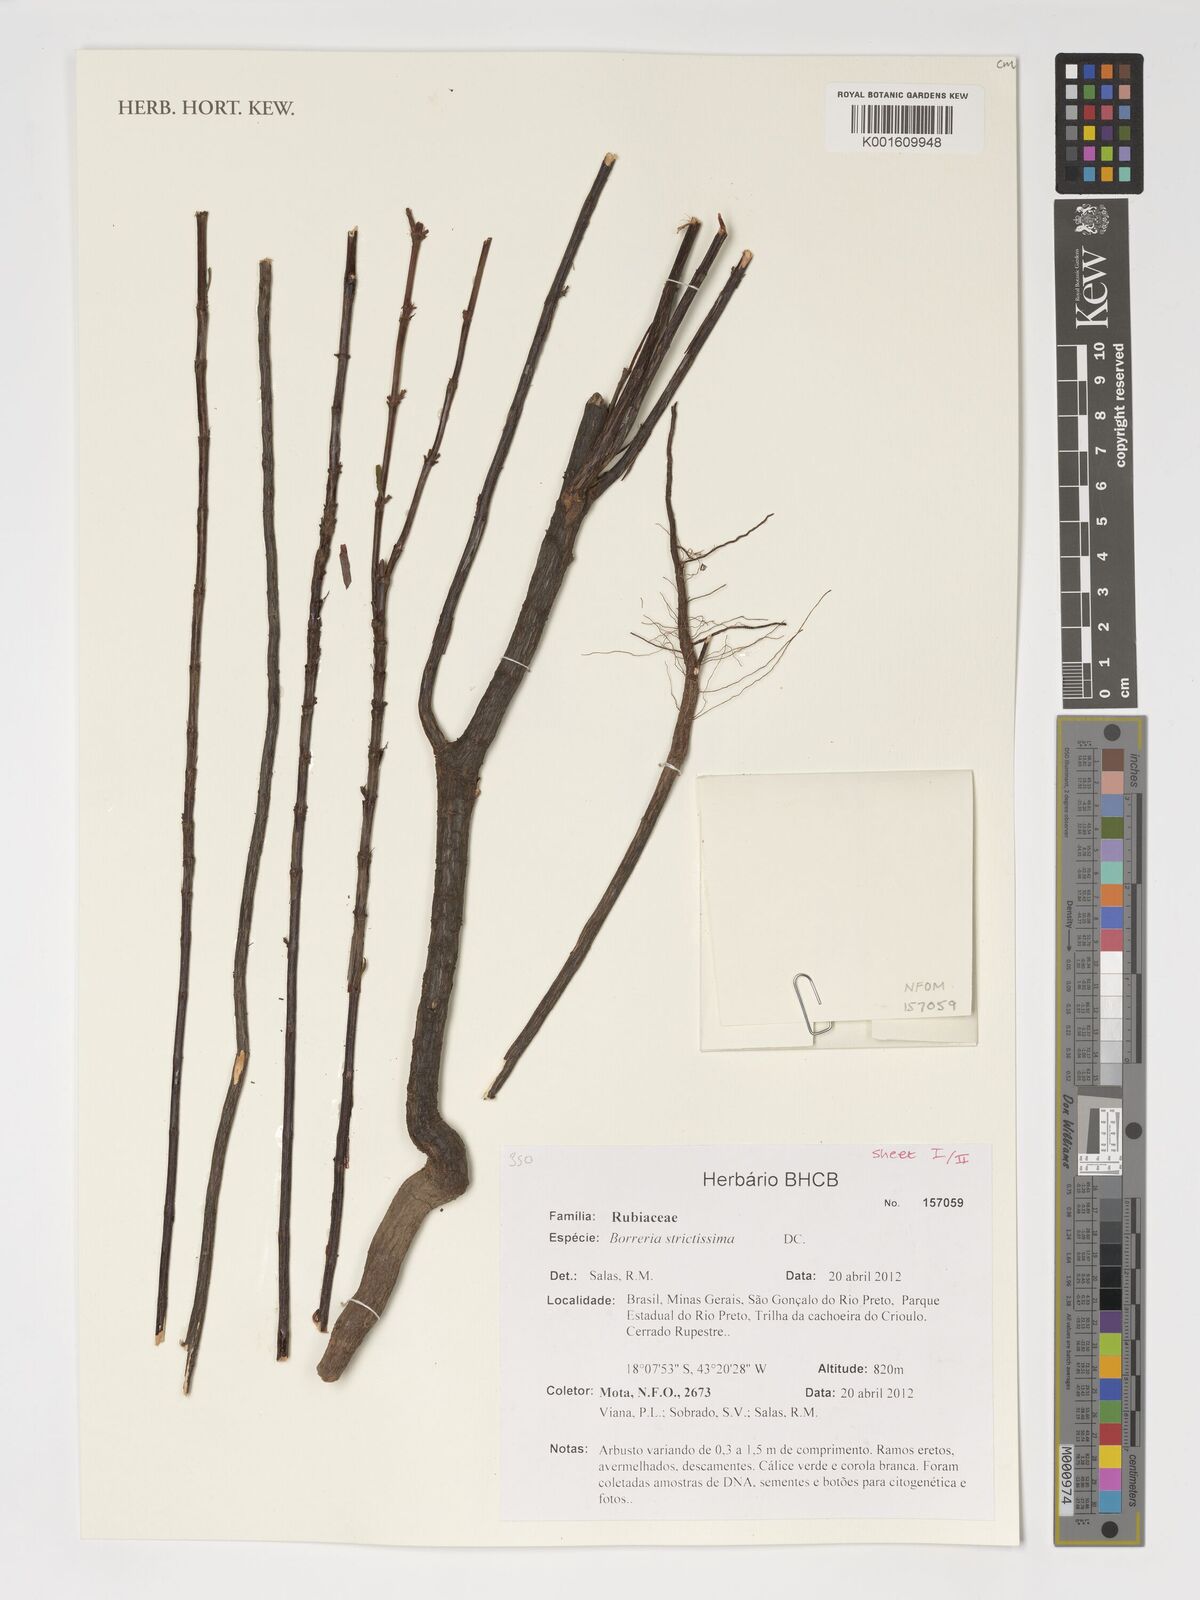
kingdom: Plantae
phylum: Tracheophyta
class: Magnoliopsida
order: Gentianales
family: Rubiaceae
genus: Spermacoce
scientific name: Spermacoce capitata
